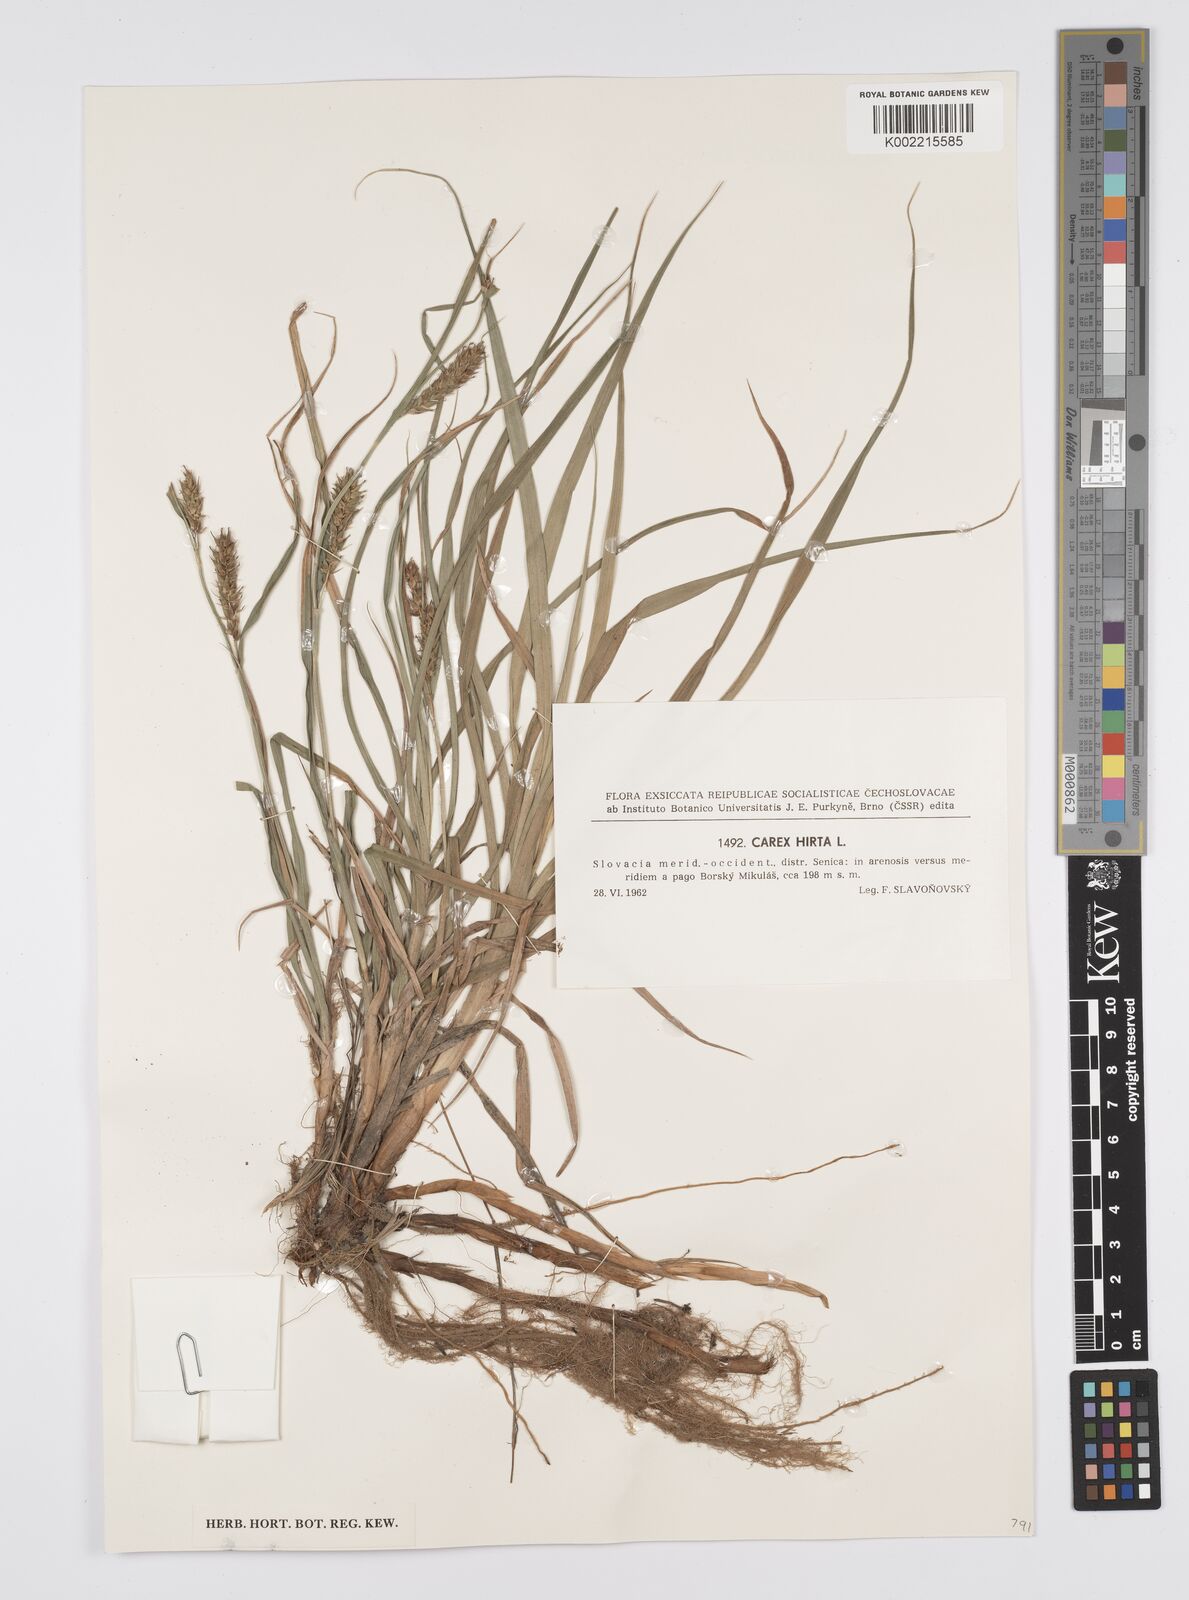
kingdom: Plantae
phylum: Tracheophyta
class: Liliopsida
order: Poales
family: Cyperaceae
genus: Carex
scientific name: Carex hirta
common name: Hairy sedge
